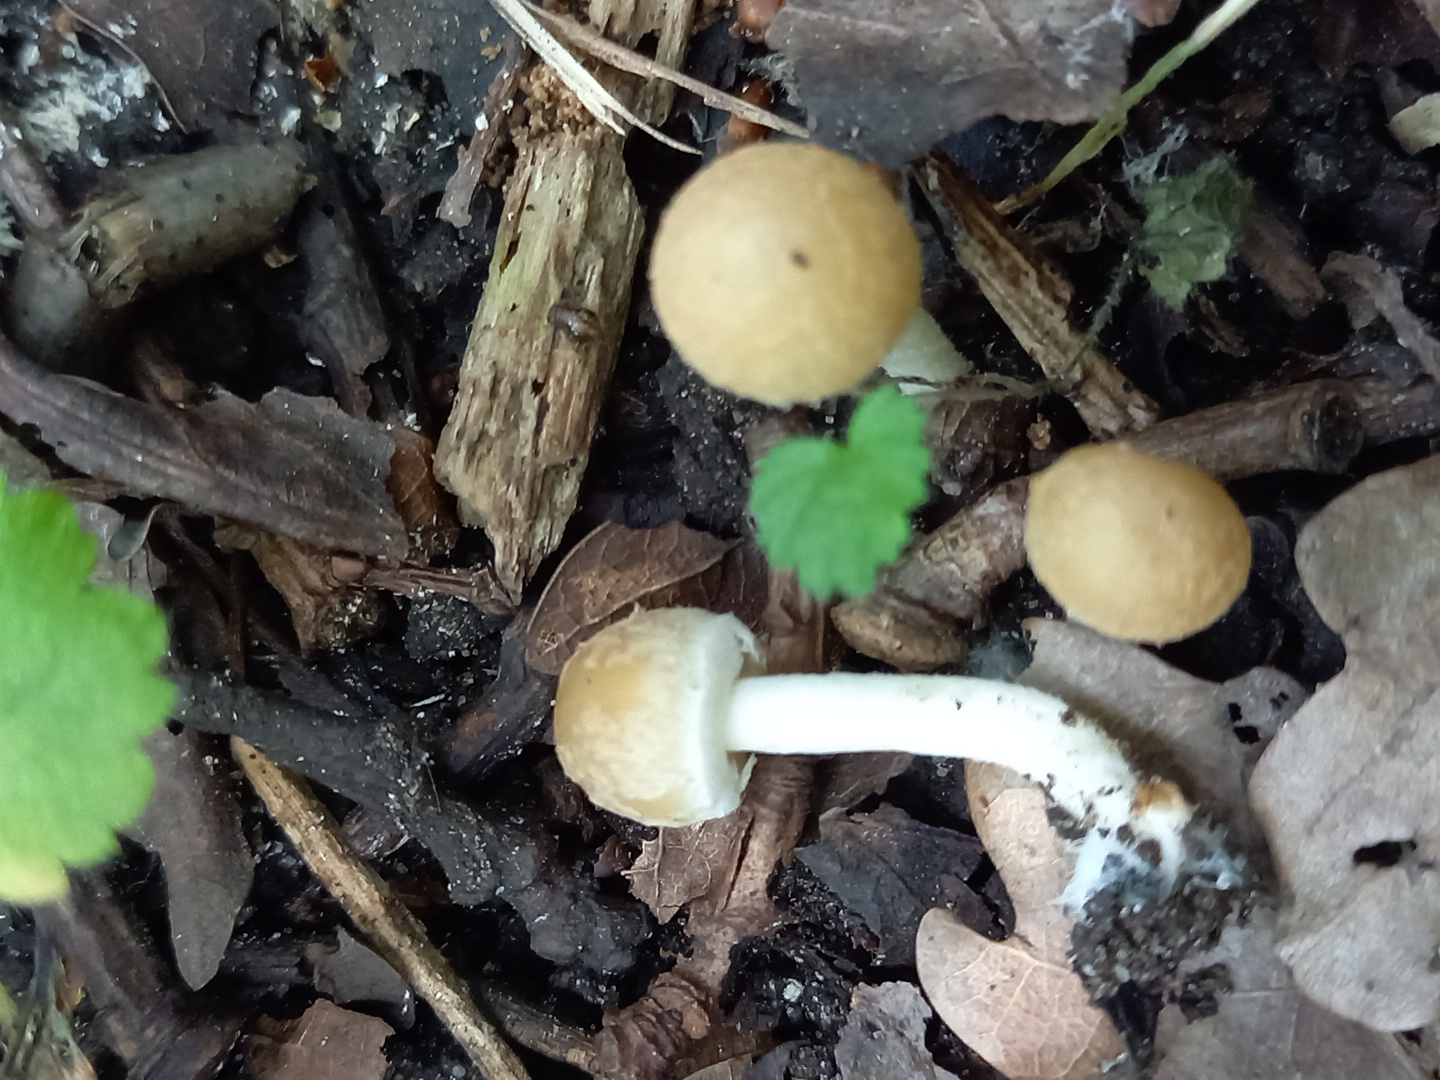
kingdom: Fungi
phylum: Basidiomycota
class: Agaricomycetes
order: Agaricales
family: Psathyrellaceae
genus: Candolleomyces
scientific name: Candolleomyces candolleanus
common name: Candolles mørkhat
